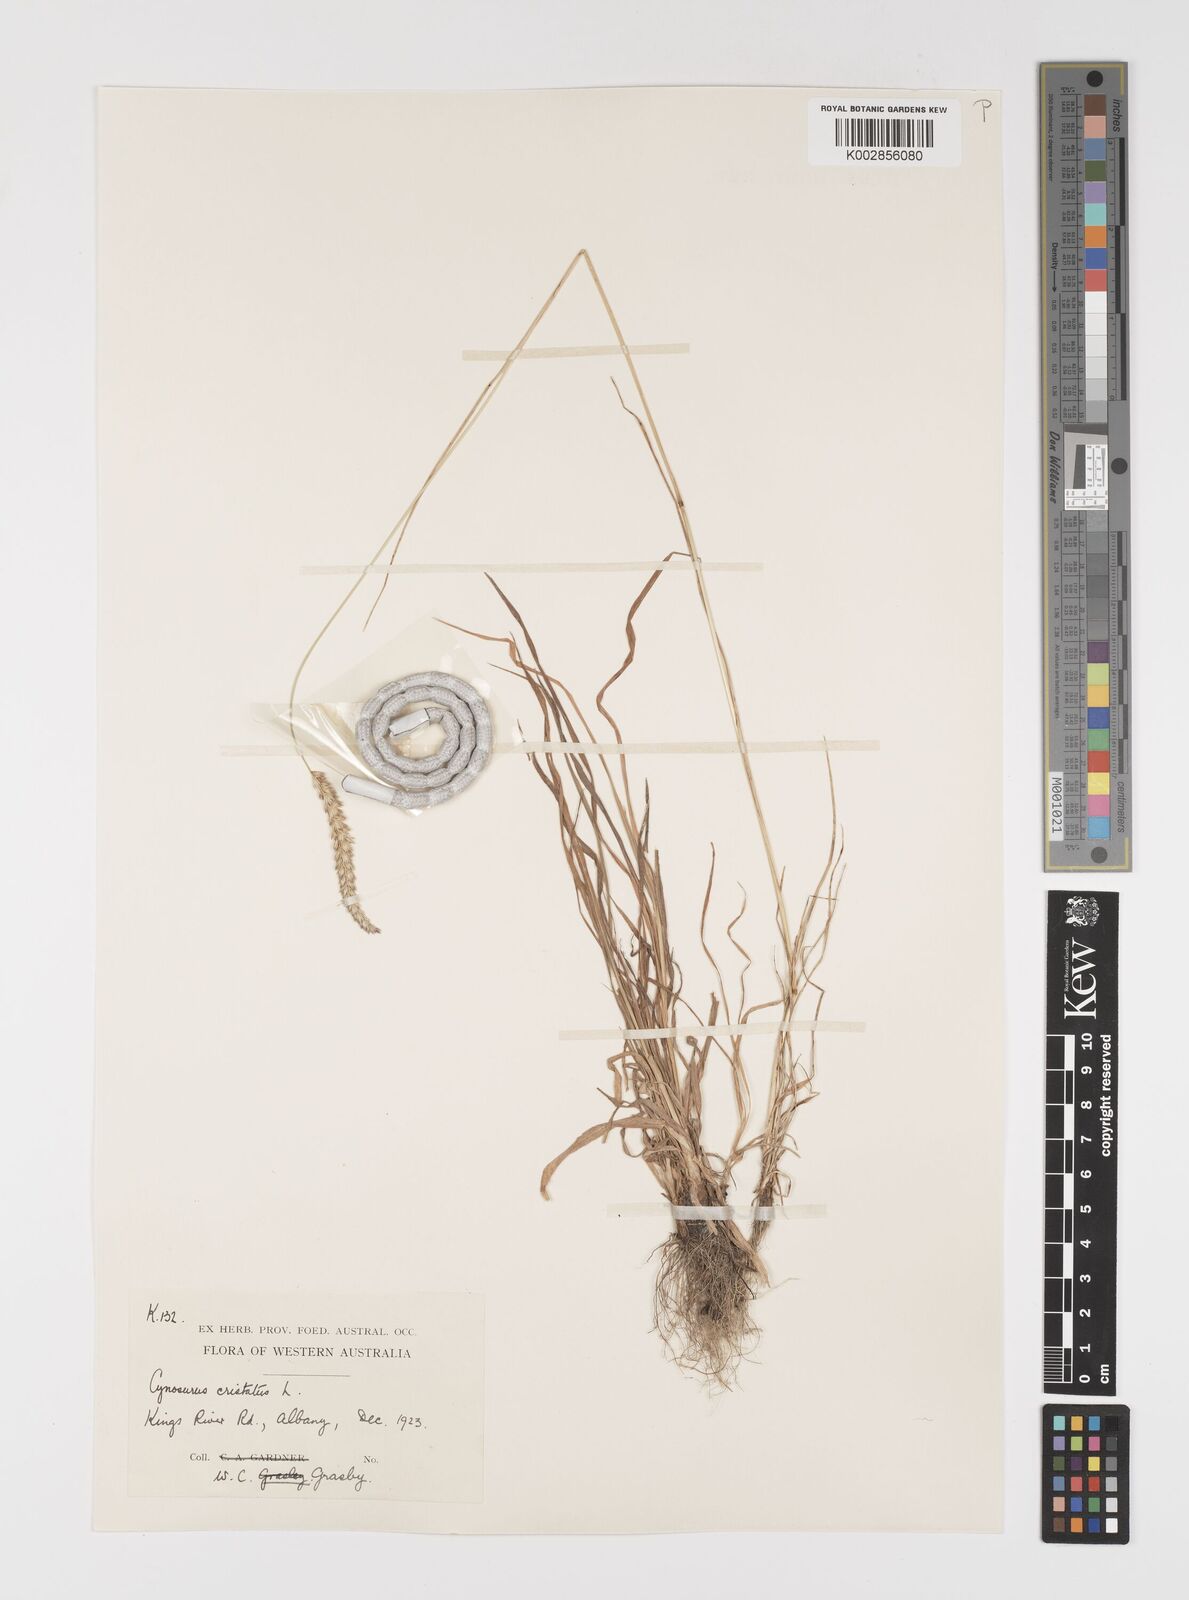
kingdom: Plantae
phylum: Tracheophyta
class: Liliopsida
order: Poales
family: Poaceae
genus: Cynosurus
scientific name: Cynosurus cristatus
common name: Crested dog's-tail
